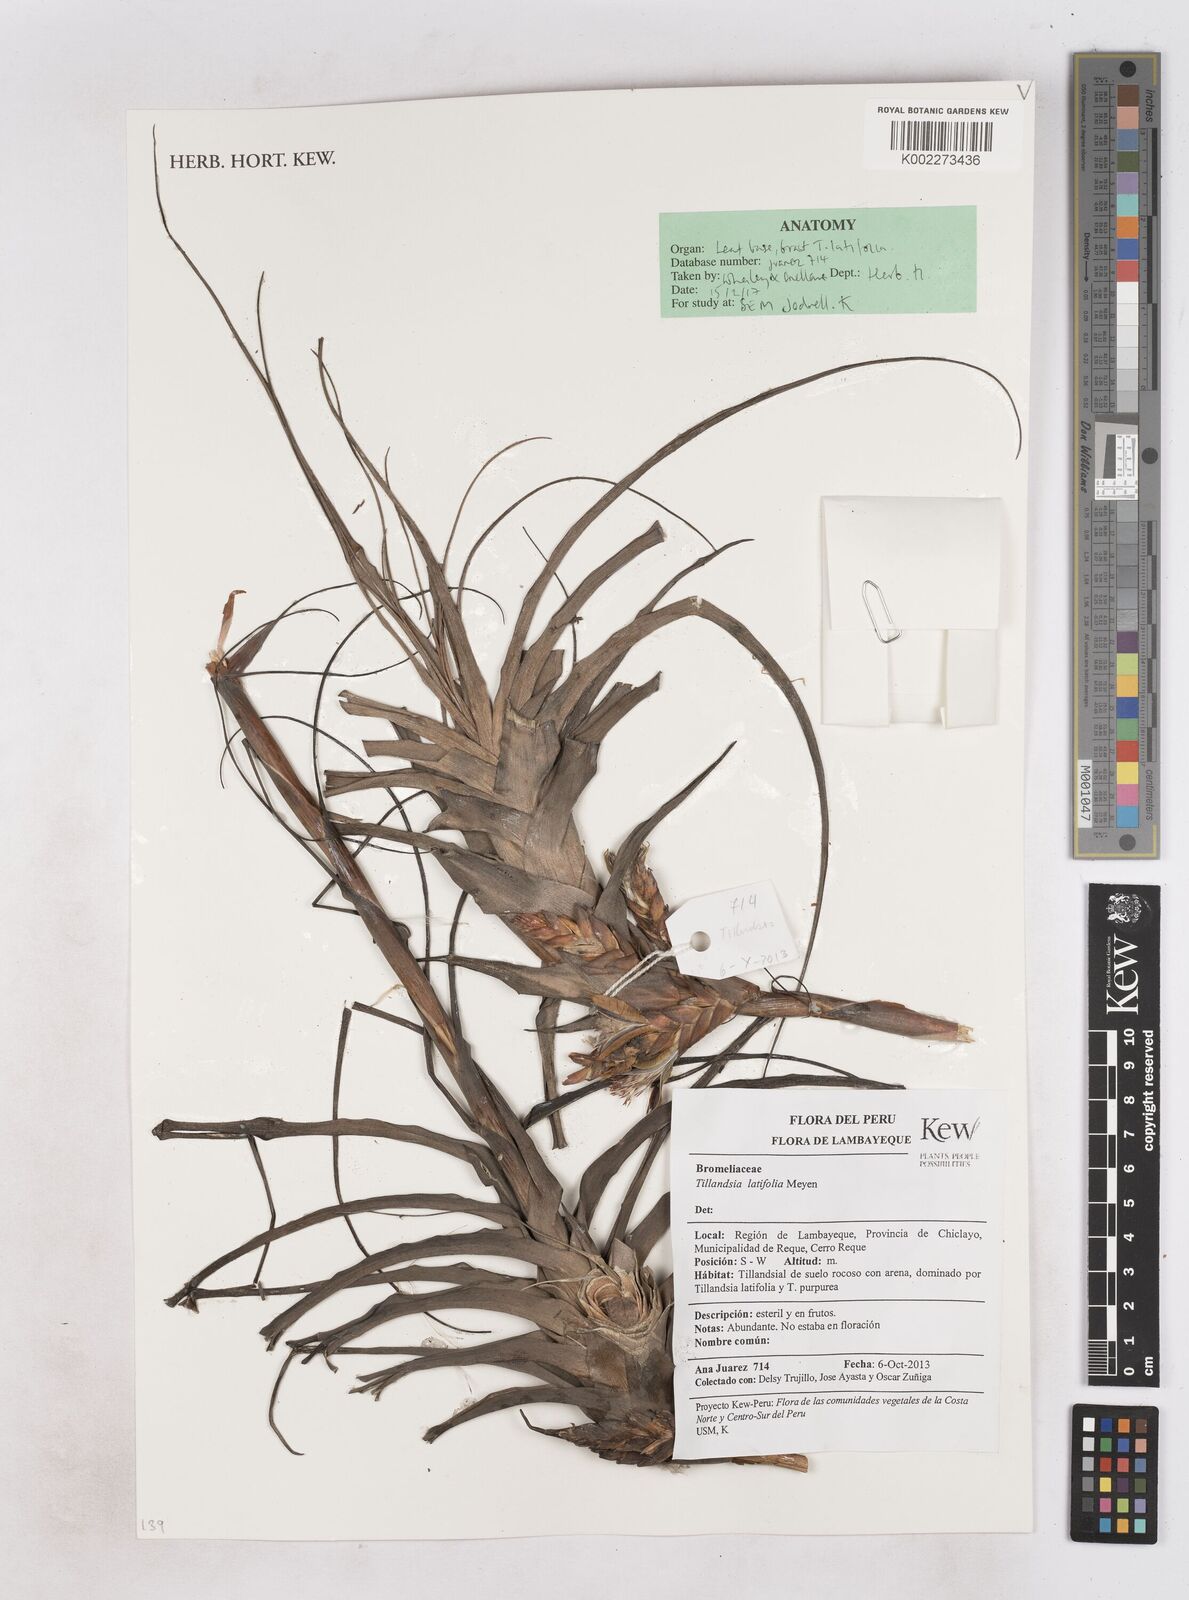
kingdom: Plantae
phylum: Tracheophyta
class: Liliopsida
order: Poales
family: Bromeliaceae
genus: Tillandsia
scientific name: Tillandsia latifolia
